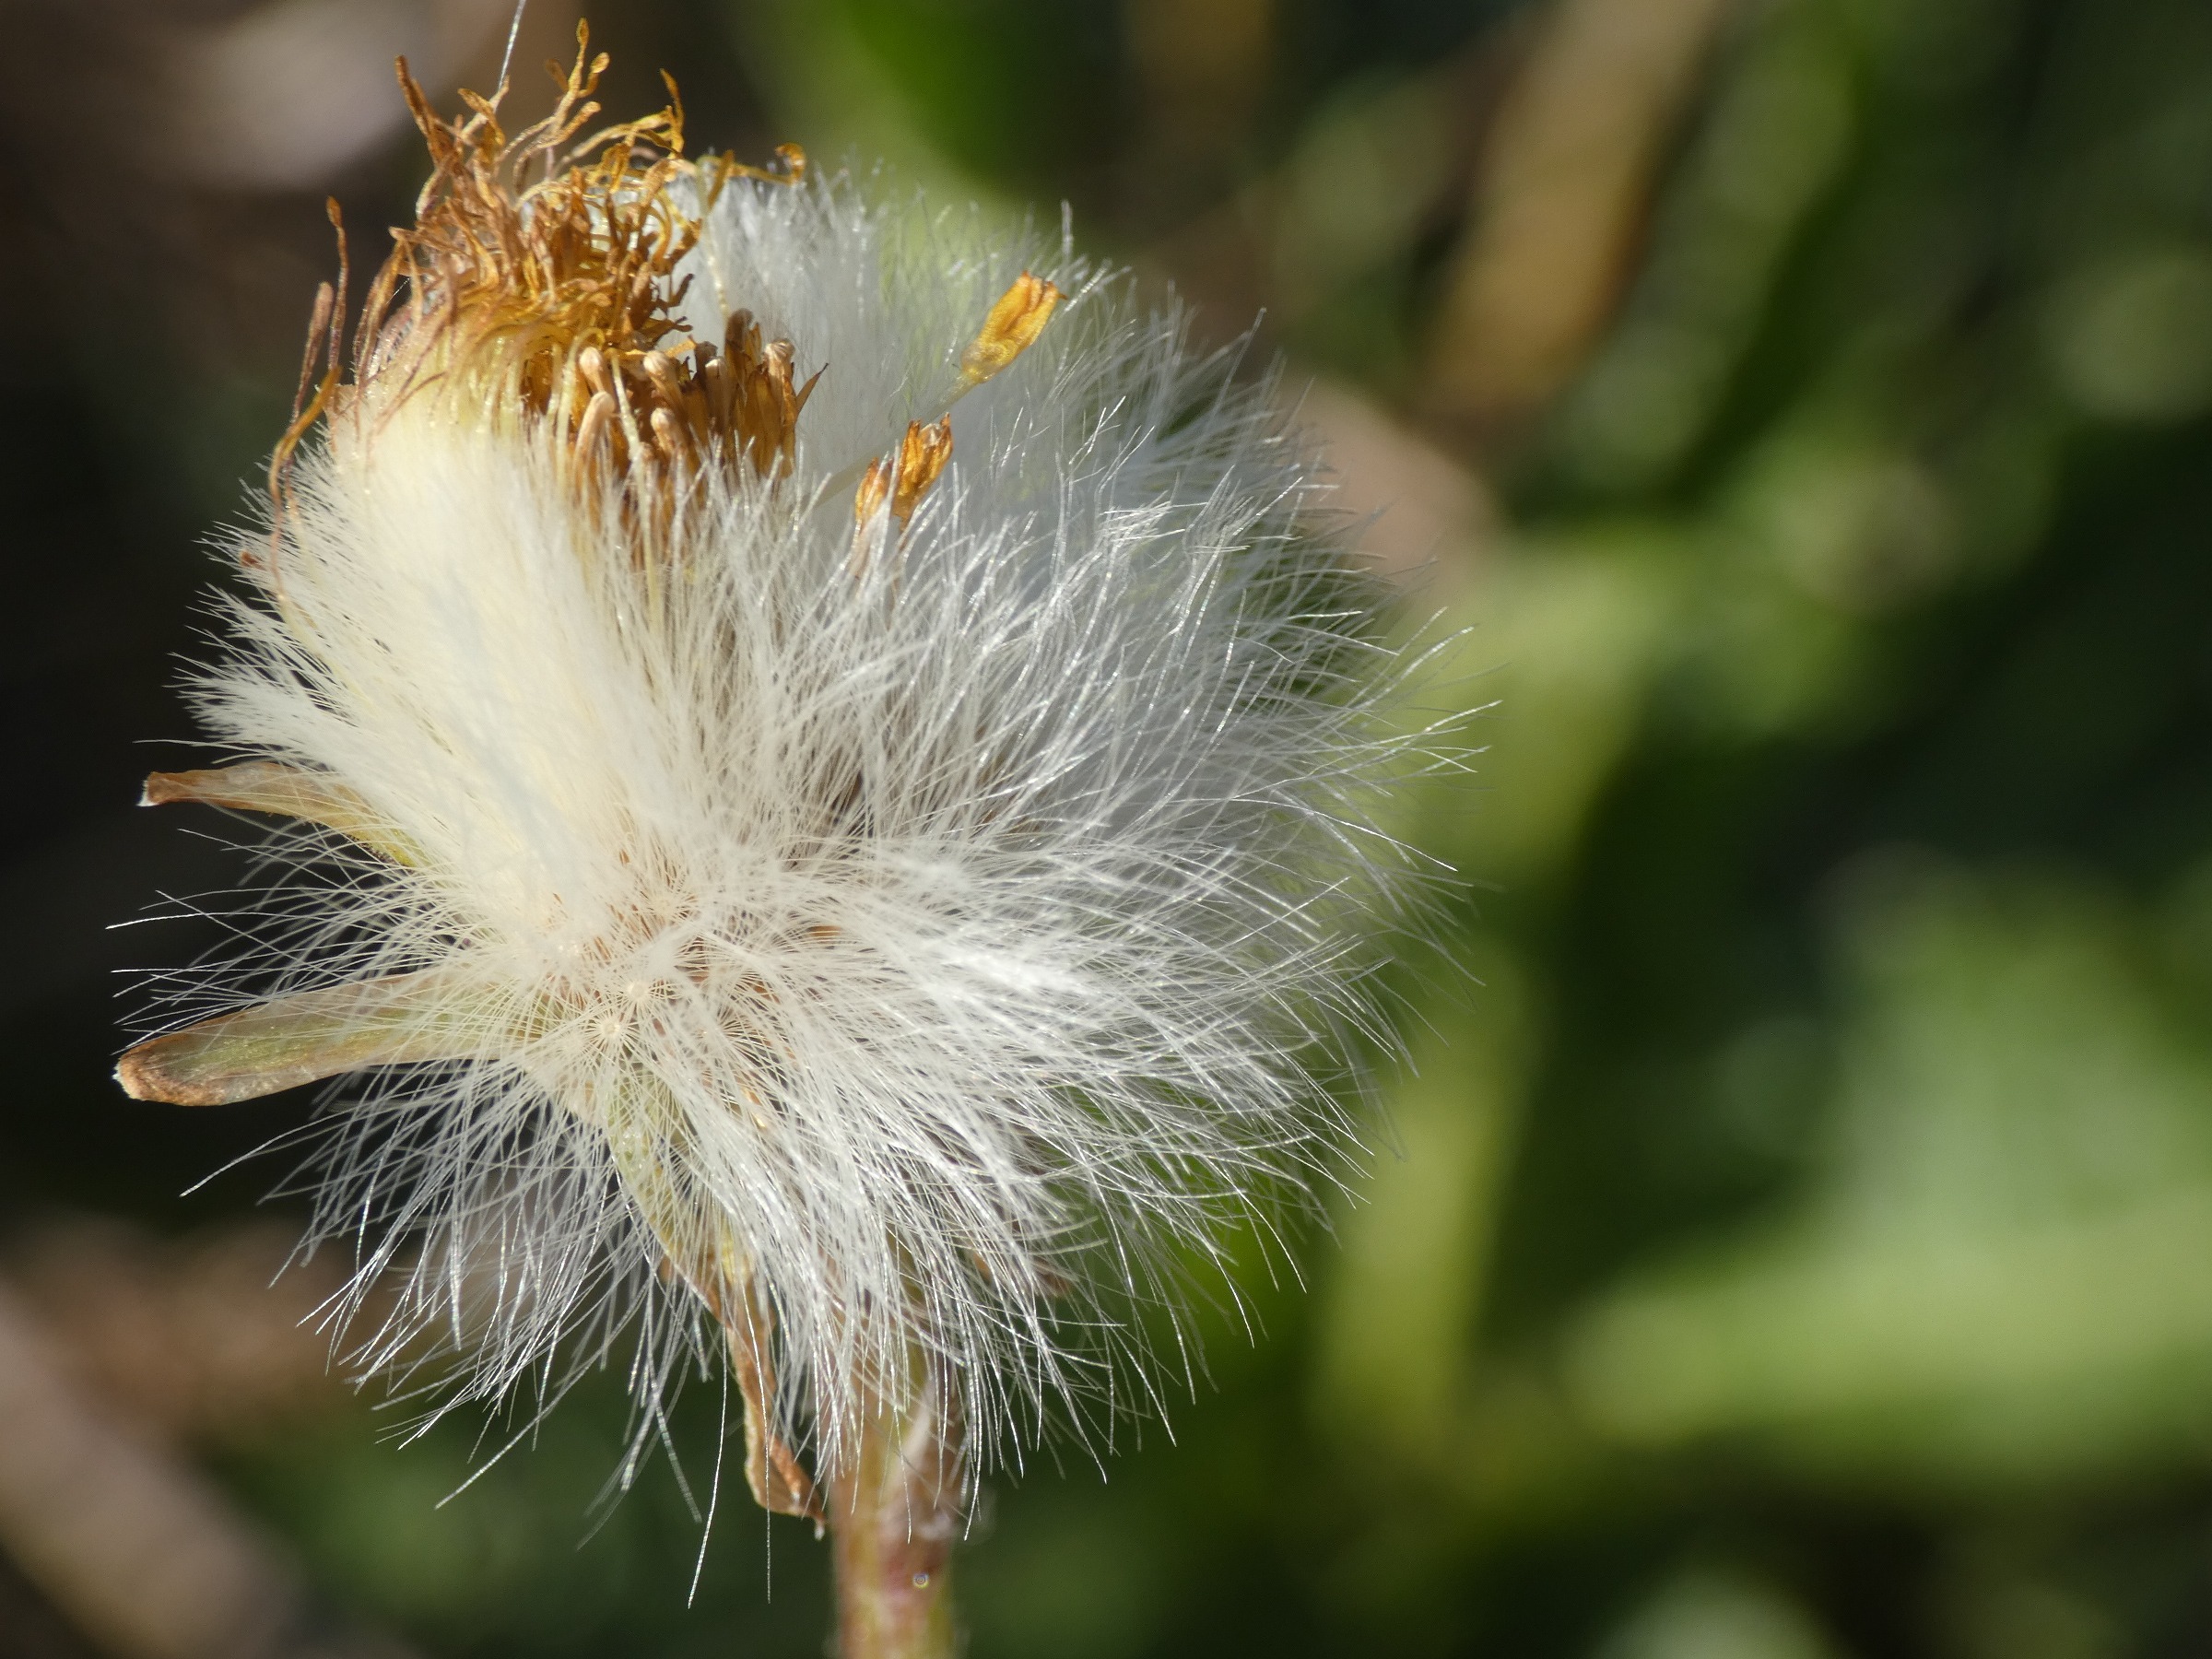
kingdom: Plantae
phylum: Tracheophyta
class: Magnoliopsida
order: Asterales
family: Asteraceae
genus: Tussilago
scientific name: Tussilago farfara
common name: Følfod
